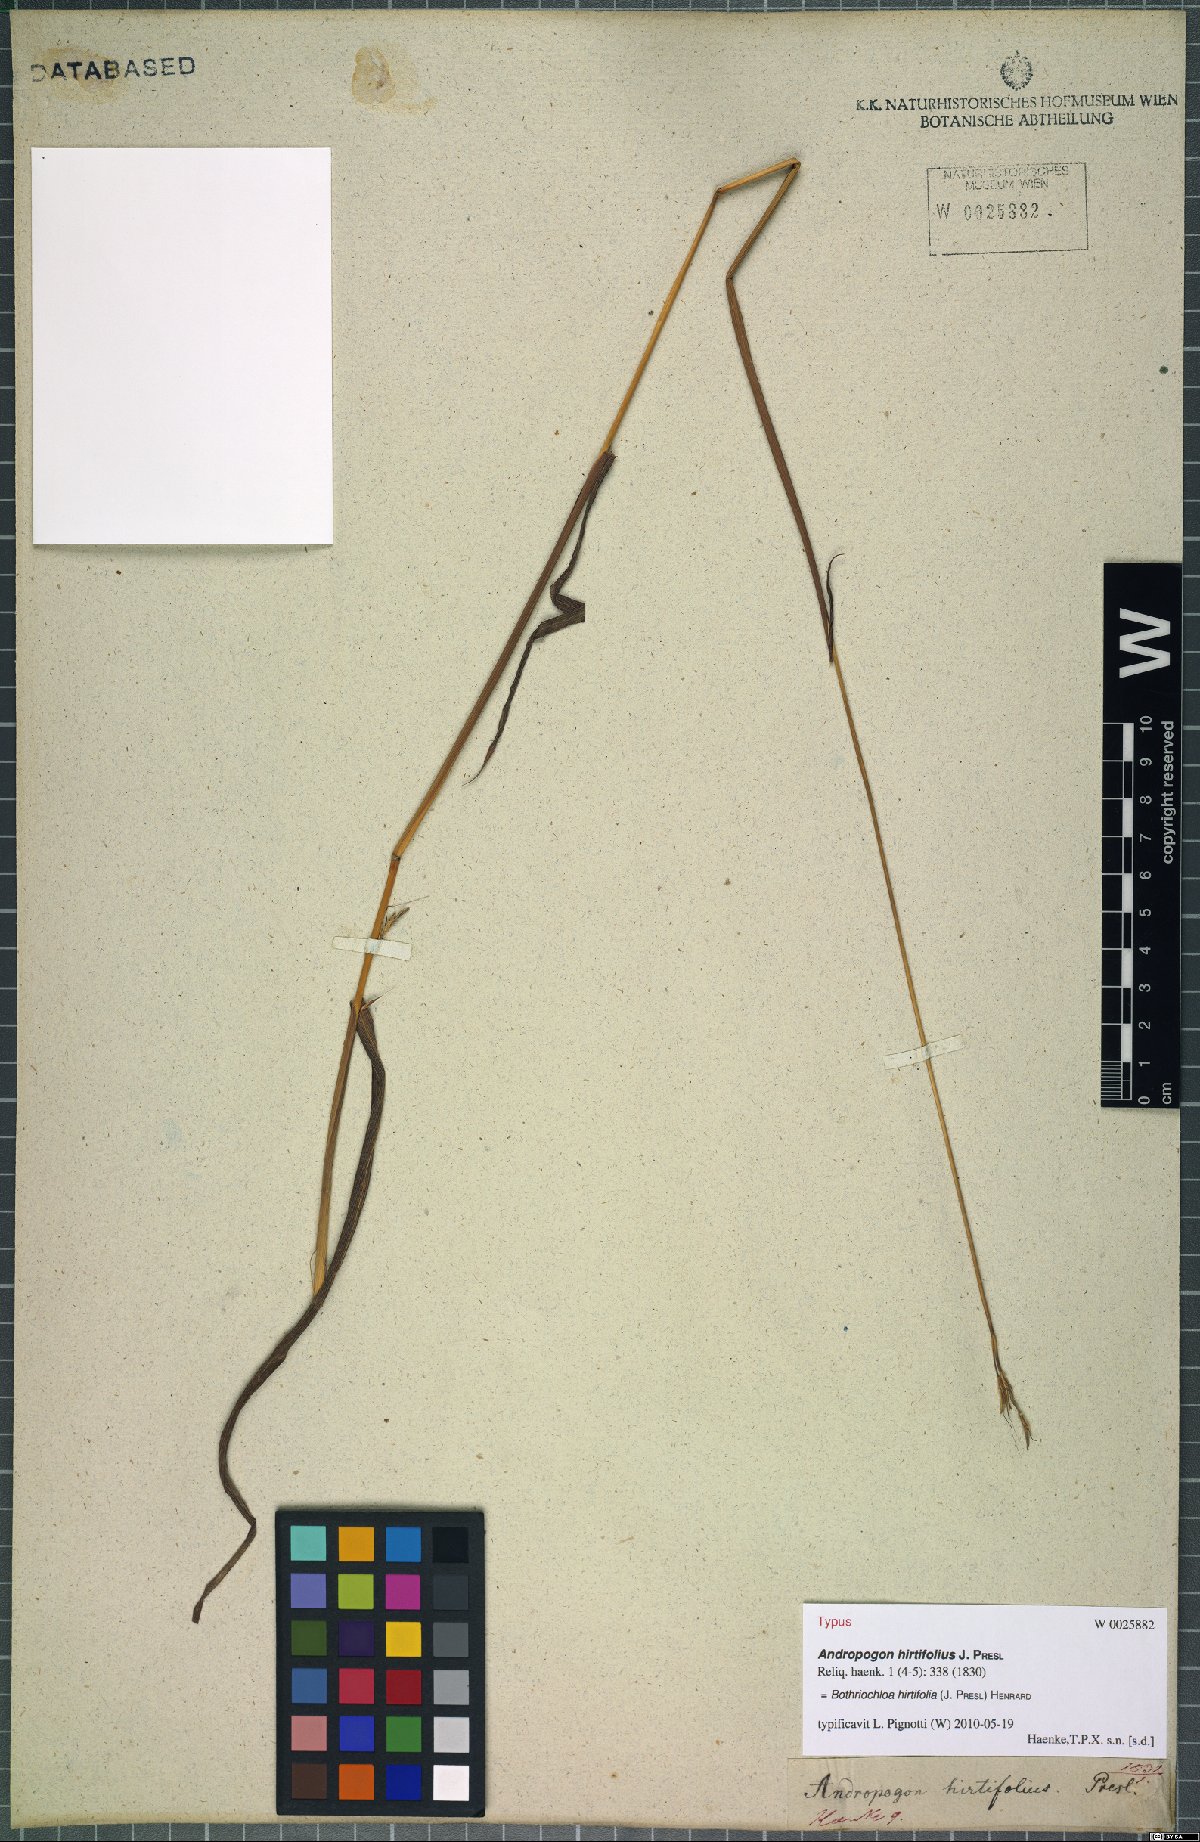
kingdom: Plantae
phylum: Tracheophyta
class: Liliopsida
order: Poales
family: Poaceae
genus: Bothriochloa
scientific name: Bothriochloa hirtifolia
